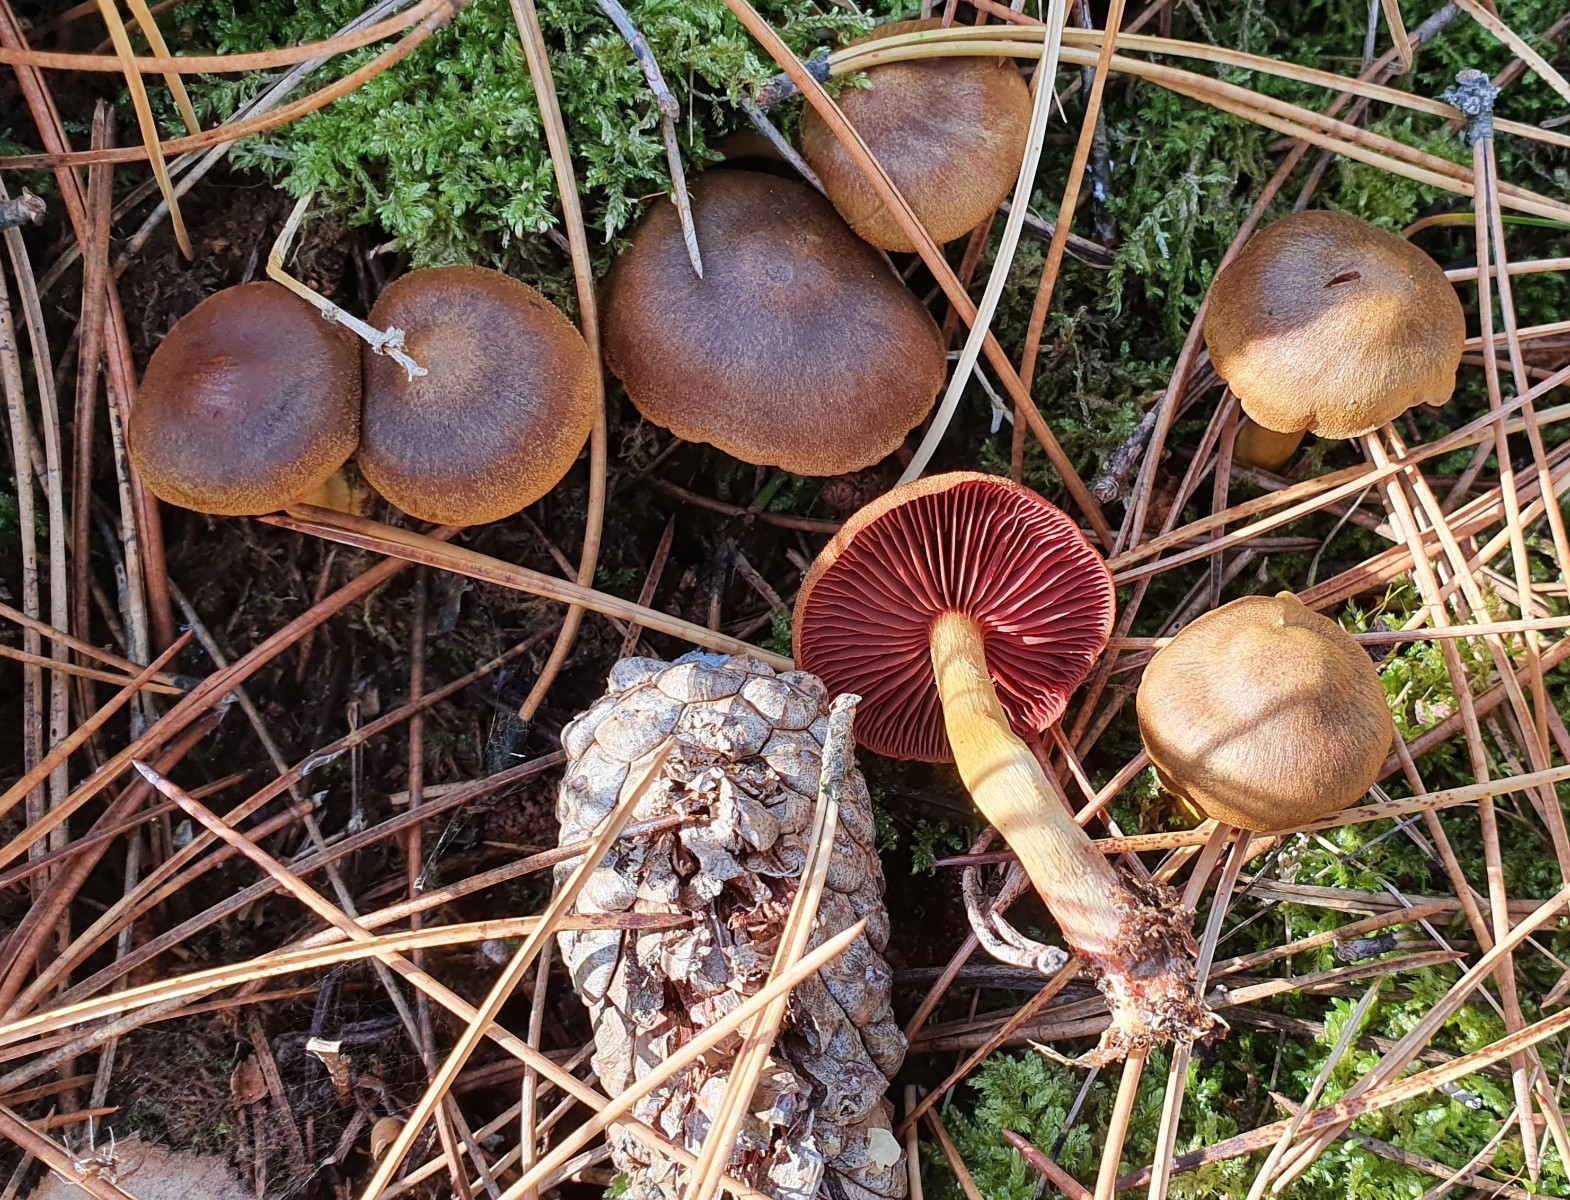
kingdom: Fungi
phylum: Basidiomycota
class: Agaricomycetes
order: Agaricales
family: Cortinariaceae
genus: Cortinarius
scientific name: Cortinarius
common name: cinnoberbladet slørhat
